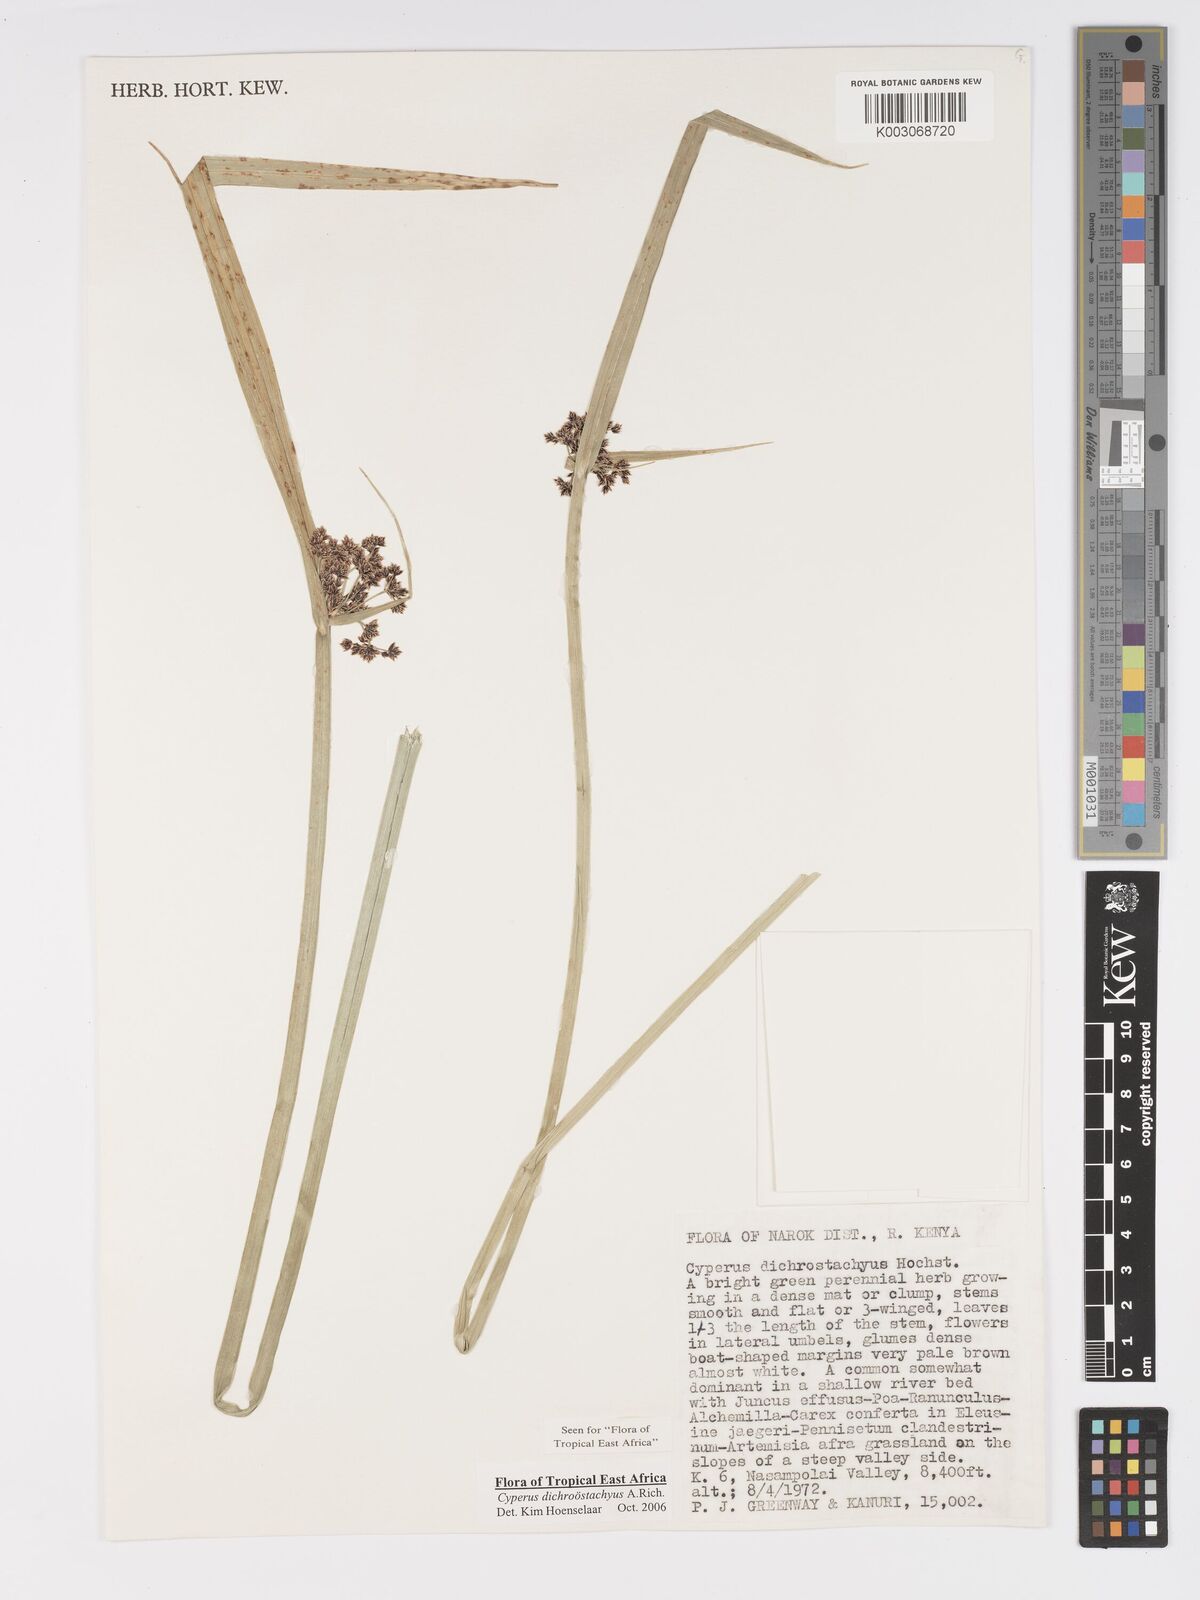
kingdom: Plantae
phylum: Tracheophyta
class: Liliopsida
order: Poales
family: Cyperaceae
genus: Cyperus
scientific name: Cyperus dichrostachyus
